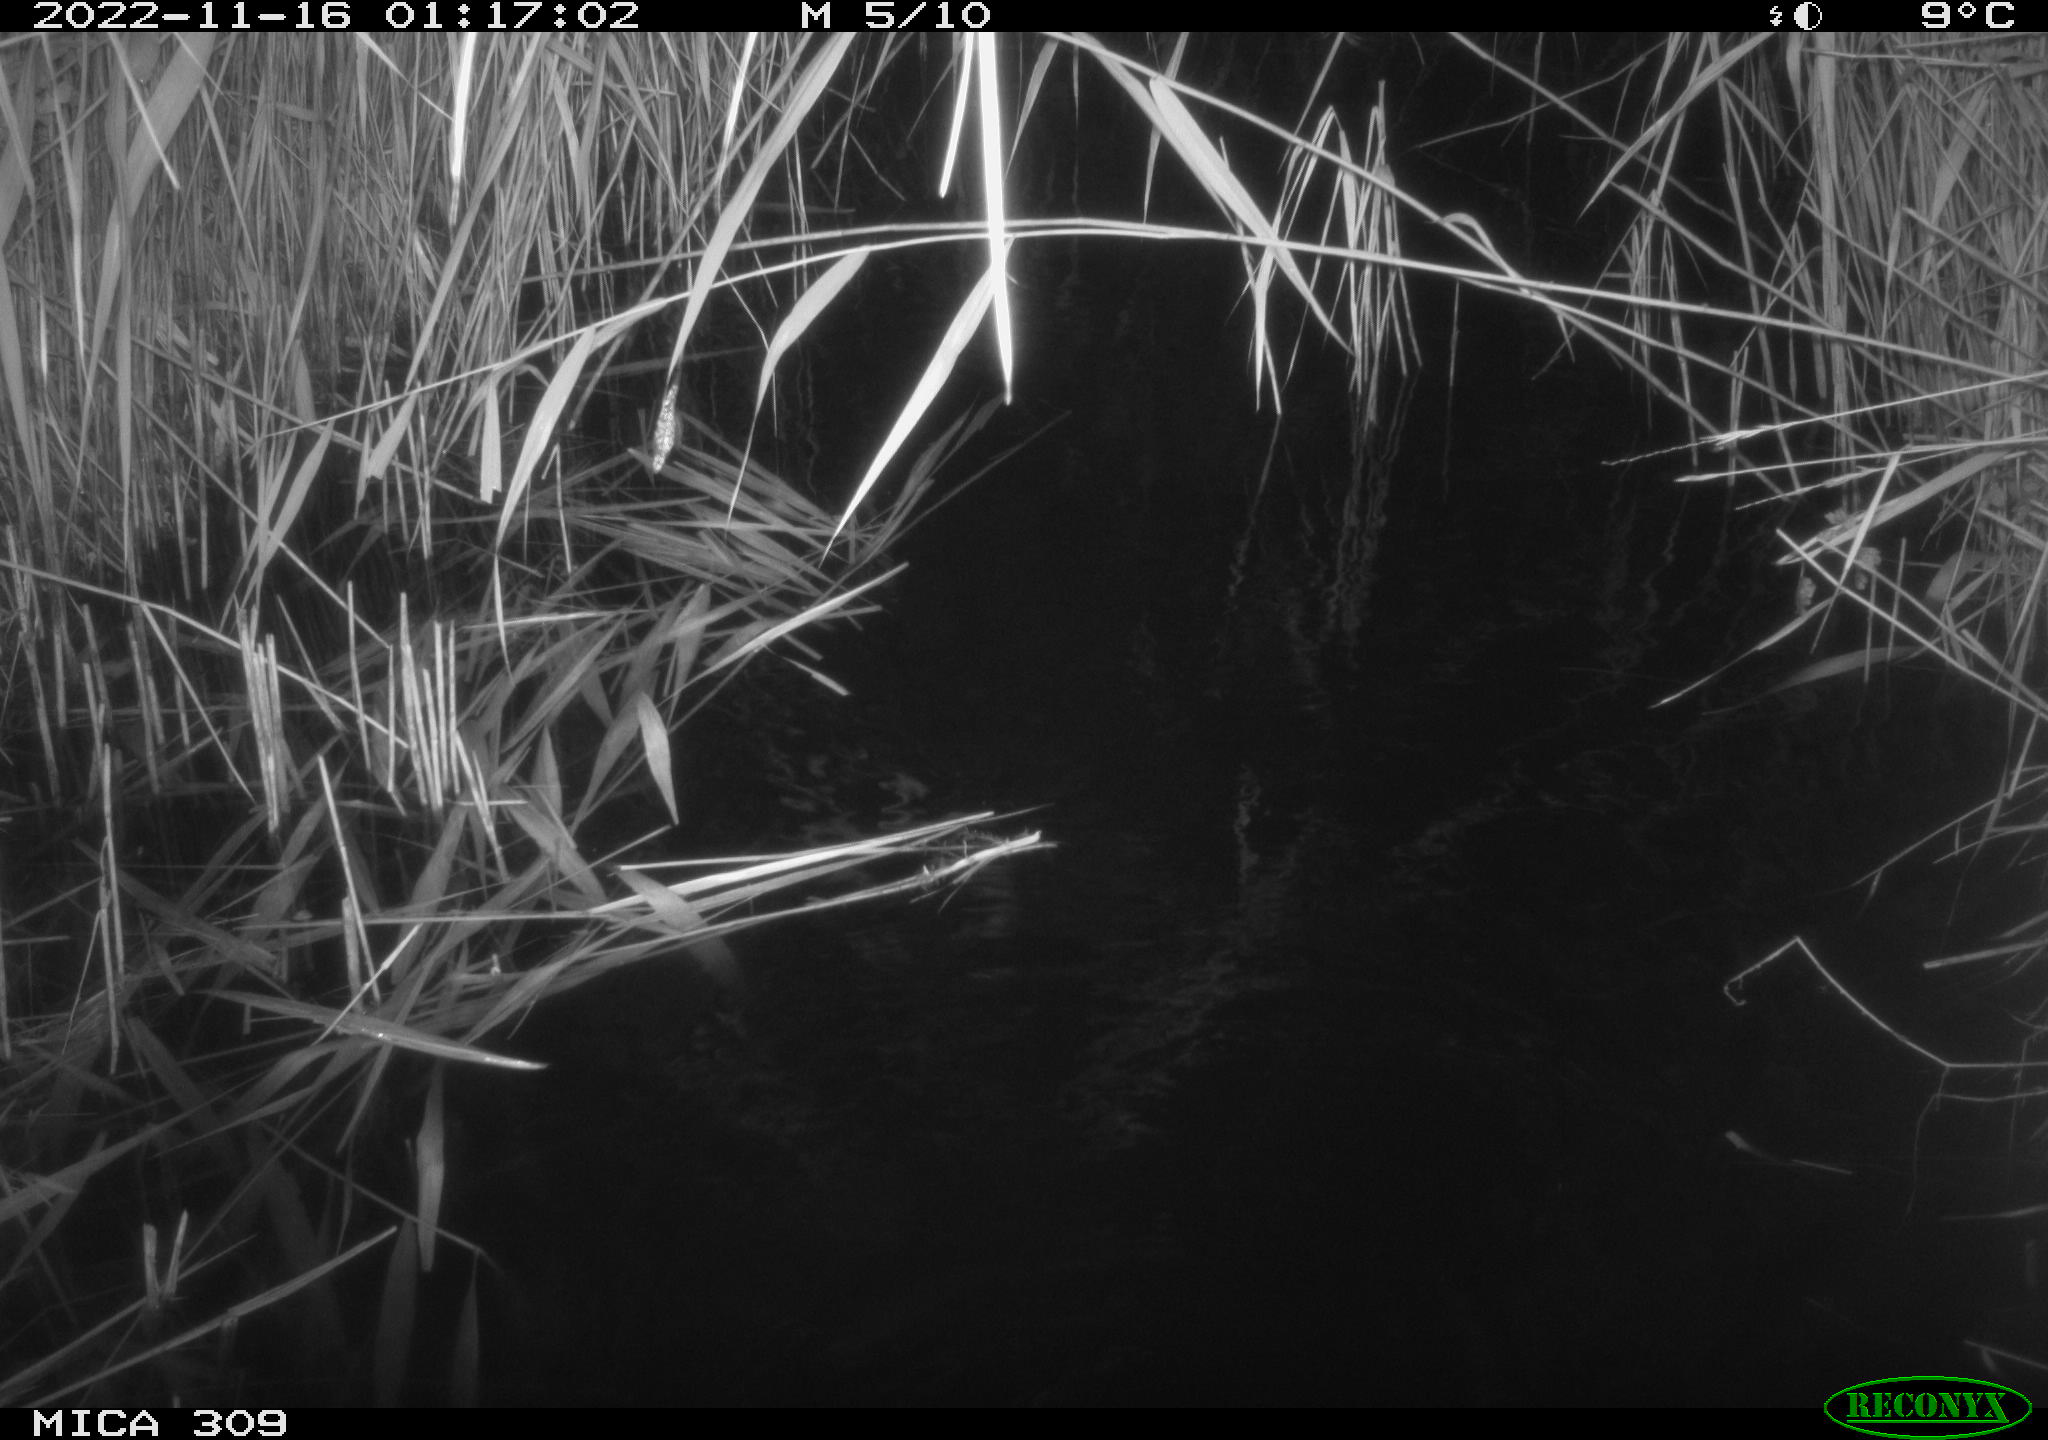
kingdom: Animalia
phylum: Chordata
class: Mammalia
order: Rodentia
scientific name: Rodentia
